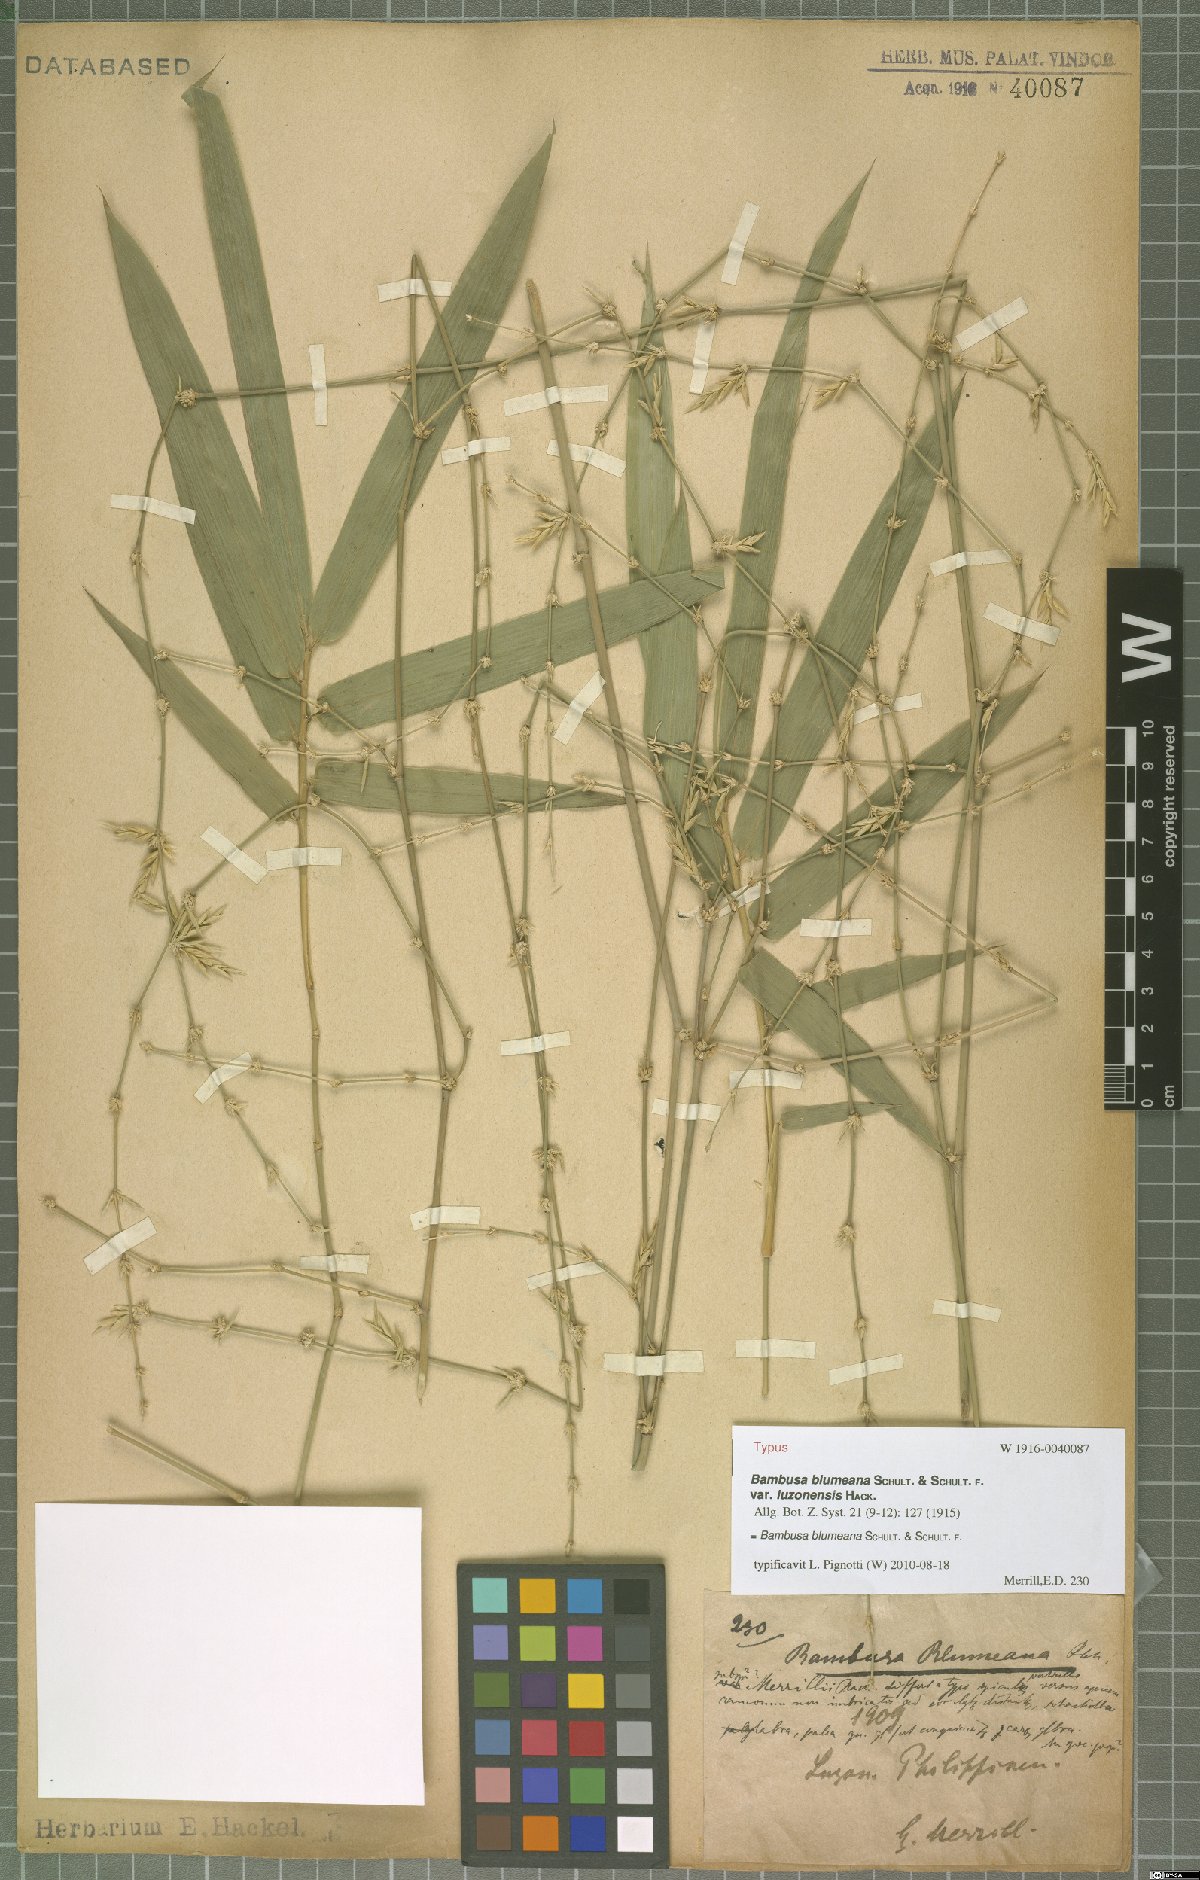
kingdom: Plantae
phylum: Tracheophyta
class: Liliopsida
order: Poales
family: Poaceae
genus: Bambusa
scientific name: Bambusa spinosa
